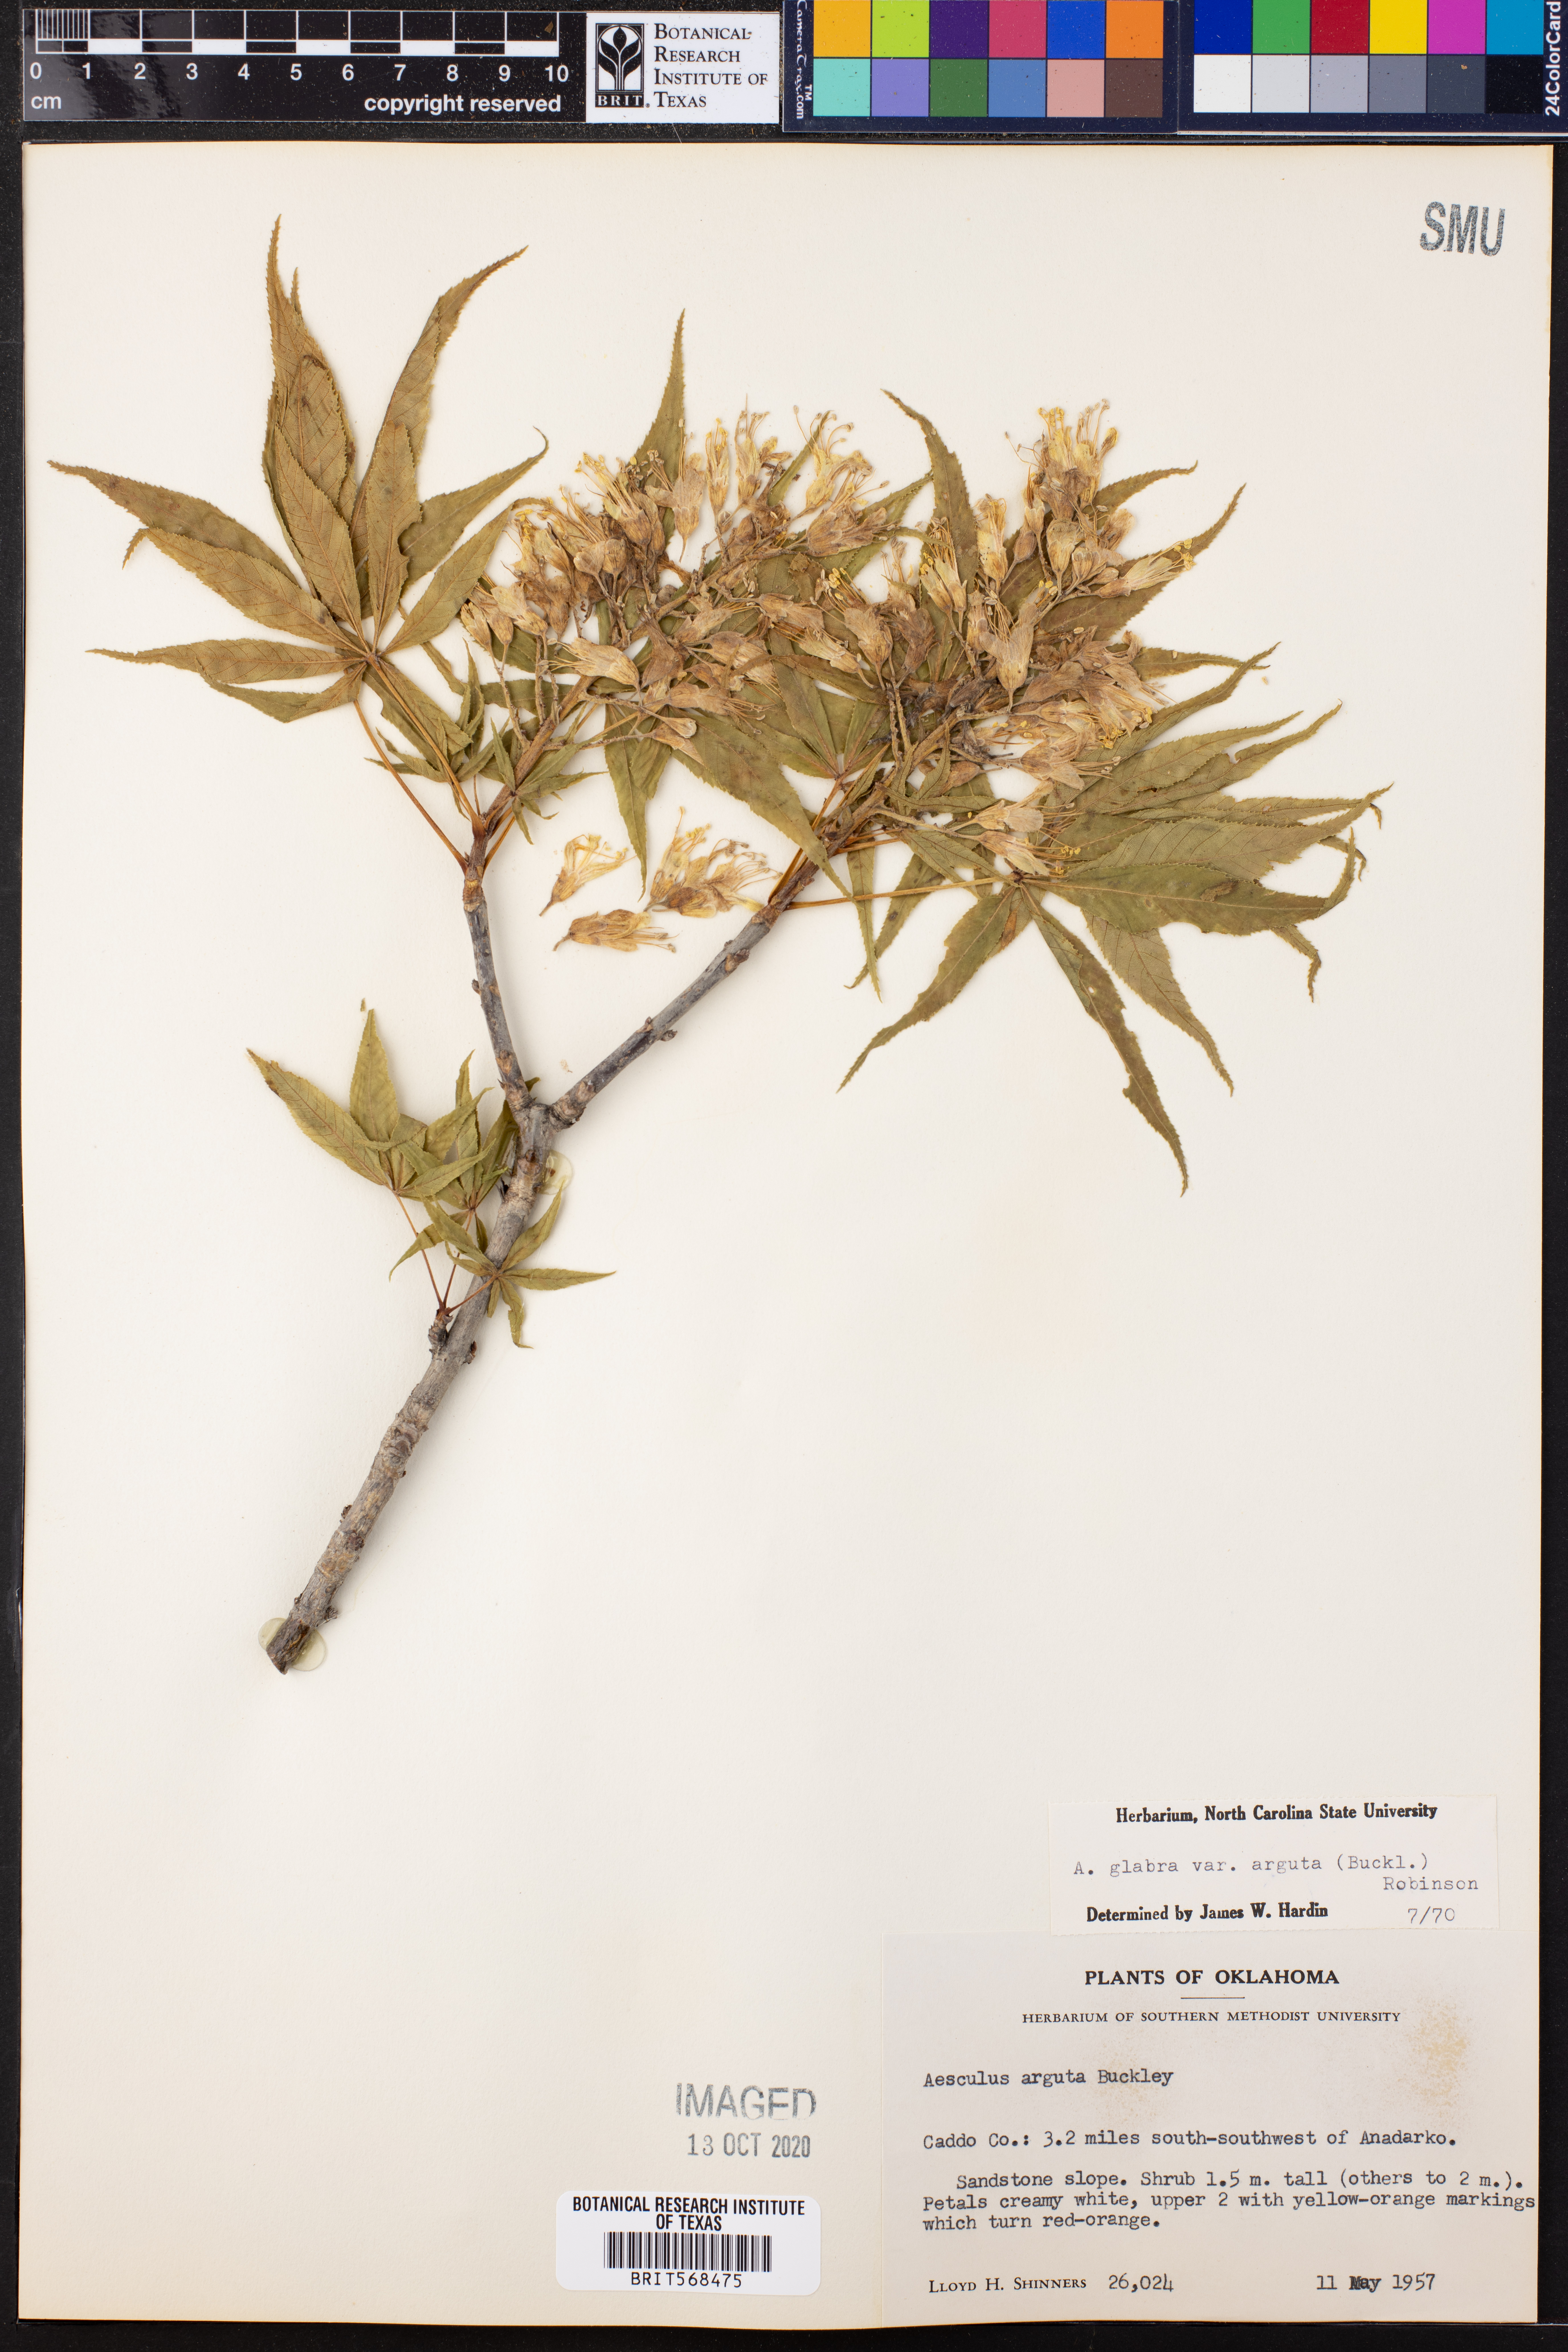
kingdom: Plantae
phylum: Tracheophyta
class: Magnoliopsida
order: Sapindales
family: Sapindaceae
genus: Aesculus
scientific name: Aesculus glabra
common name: Ohio buckeye
